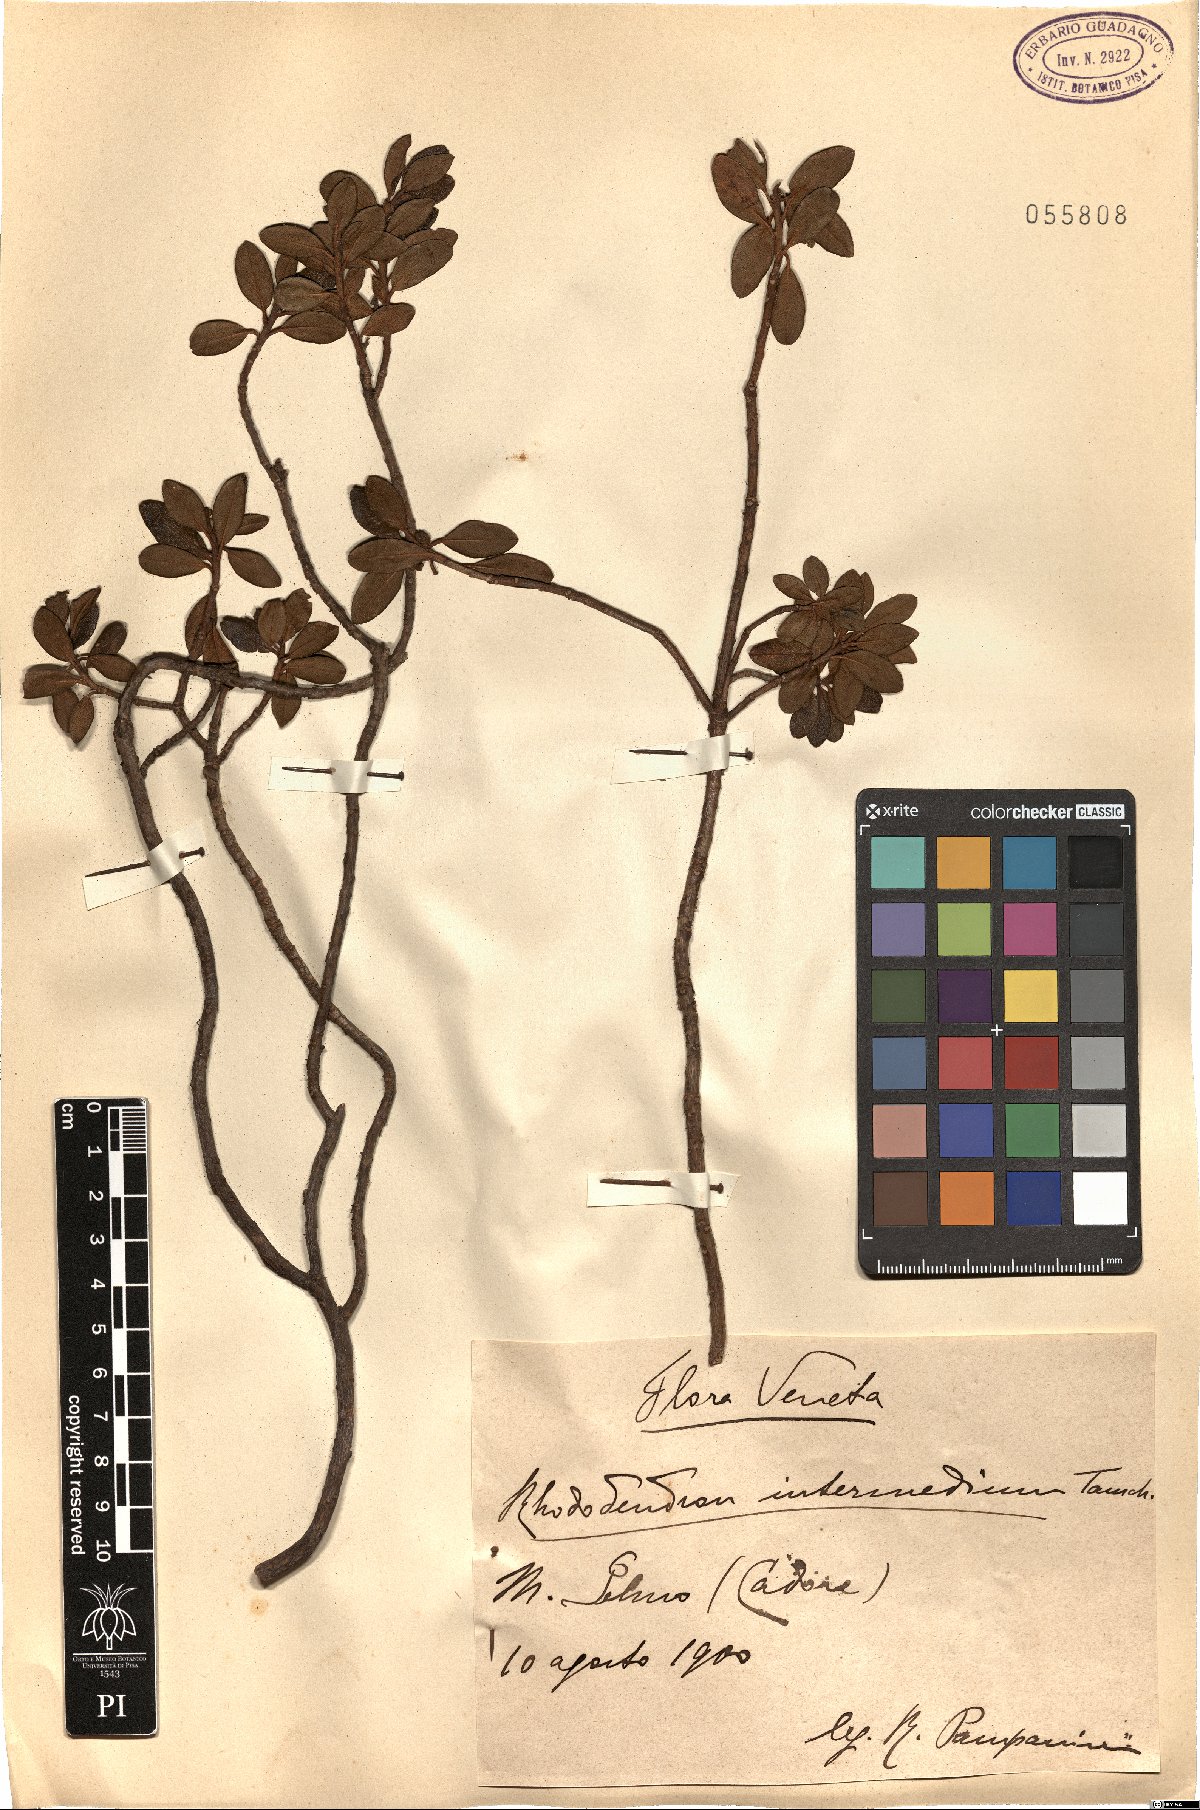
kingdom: Plantae
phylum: Tracheophyta
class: Magnoliopsida
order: Ericales
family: Ericaceae
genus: Rhododendron
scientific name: Rhododendron intermedium
